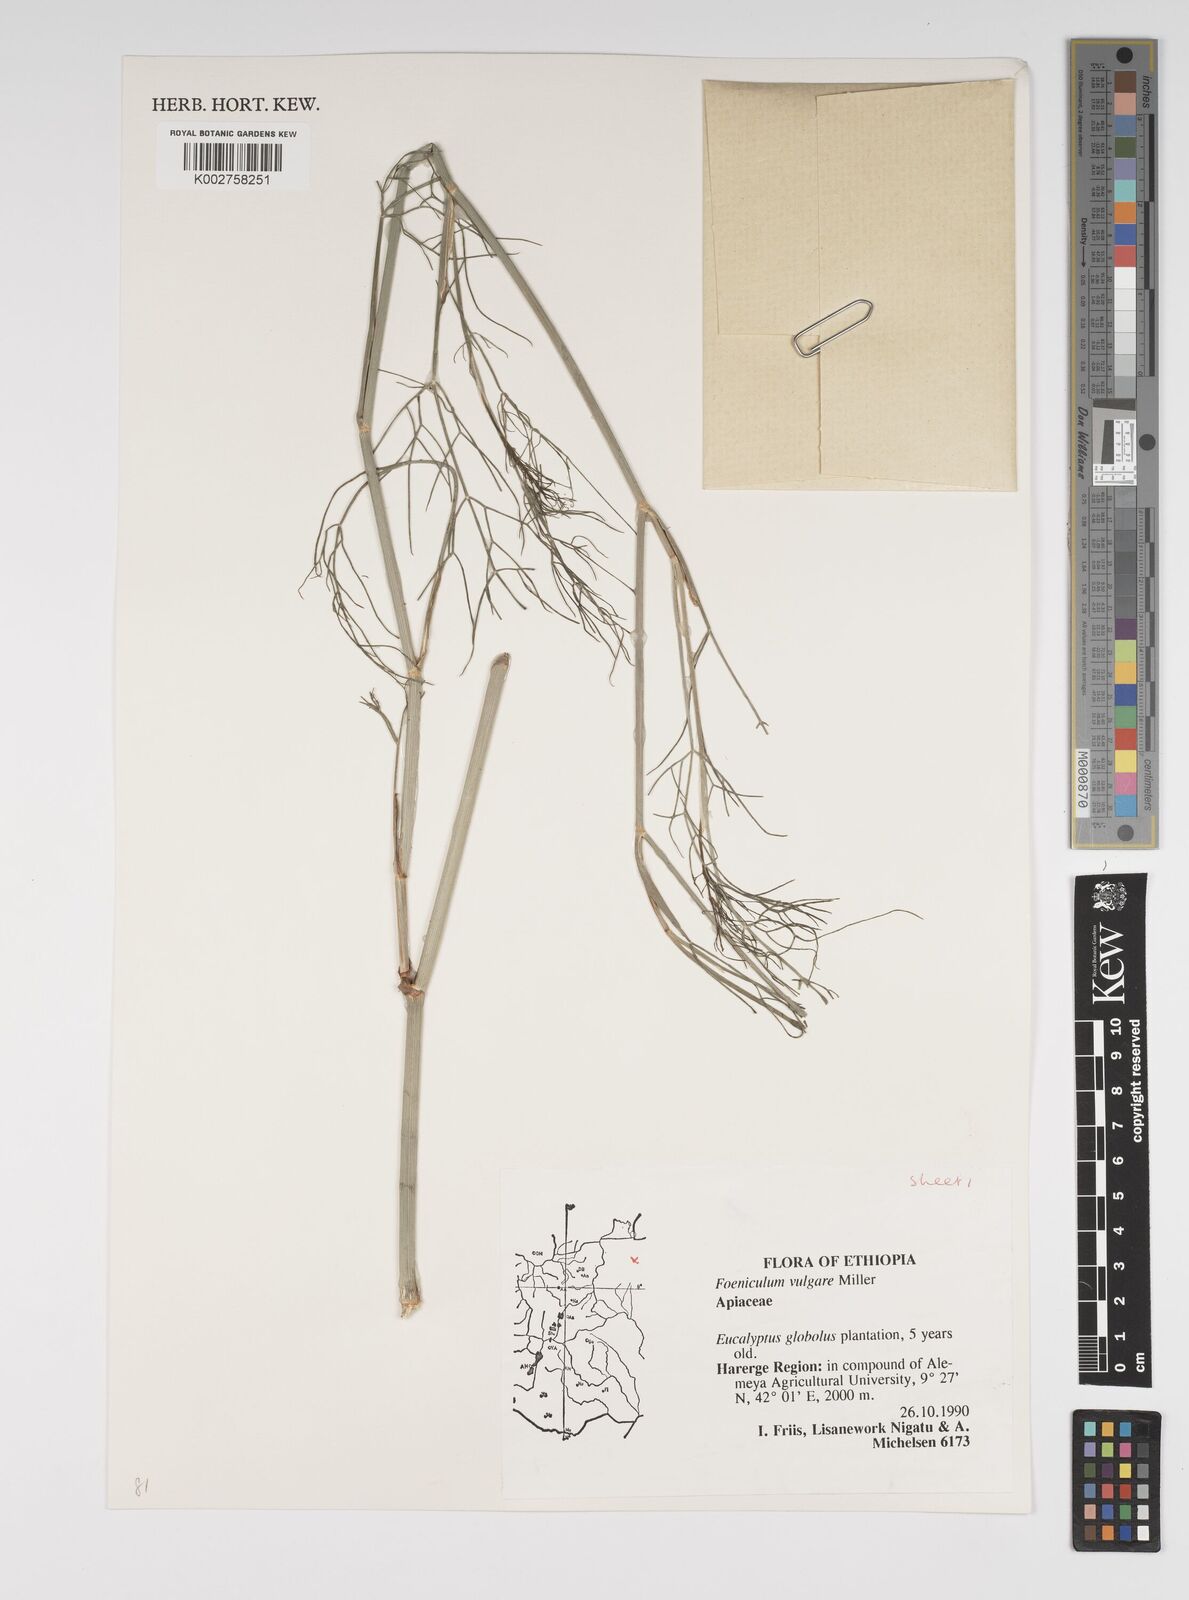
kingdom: Plantae
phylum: Tracheophyta
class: Magnoliopsida
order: Apiales
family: Apiaceae
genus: Foeniculum
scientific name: Foeniculum vulgare
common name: Fennel
